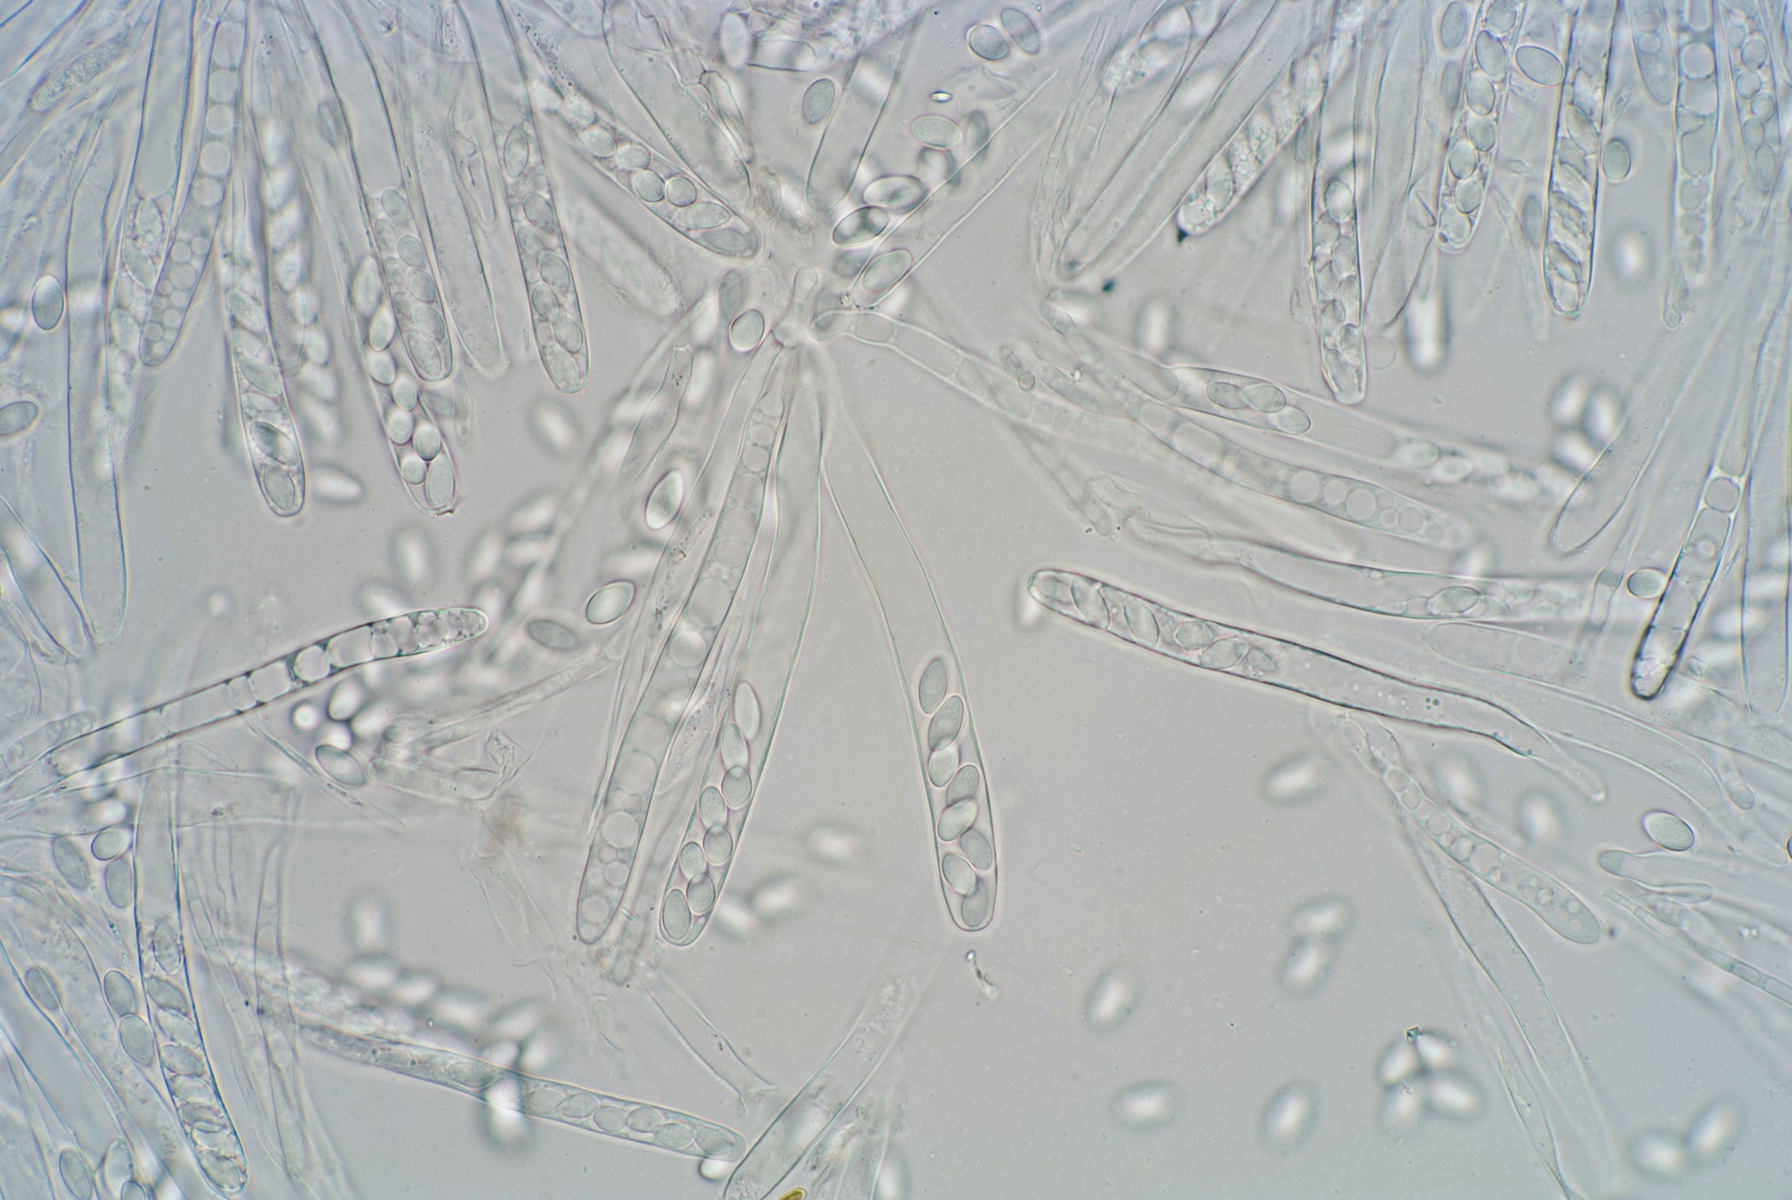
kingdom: Fungi
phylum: Ascomycota
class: Leotiomycetes
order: Helotiales
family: Rutstroemiaceae
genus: Rutstroemia
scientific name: Rutstroemia conformata
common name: elleblads-brunskive
